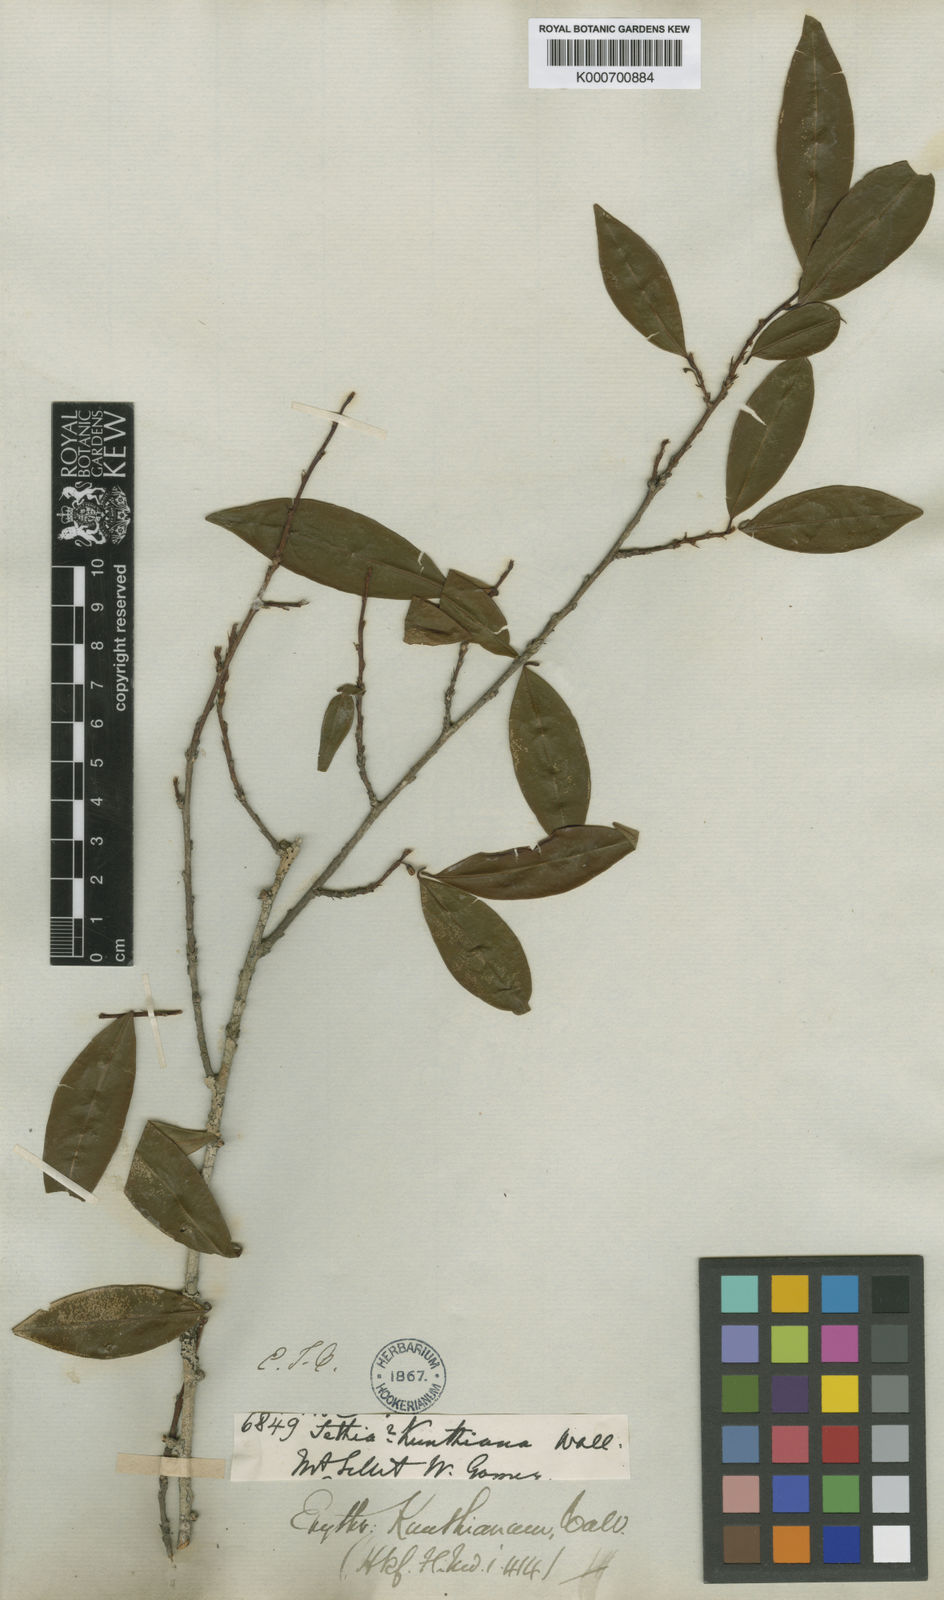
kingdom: Plantae
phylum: Tracheophyta
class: Magnoliopsida
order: Malpighiales
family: Erythroxylaceae
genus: Erythroxylum
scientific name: Erythroxylum
